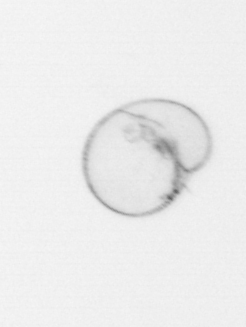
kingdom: Chromista
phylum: Myzozoa
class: Dinophyceae
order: Noctilucales
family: Noctilucaceae
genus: Noctiluca
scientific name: Noctiluca scintillans
